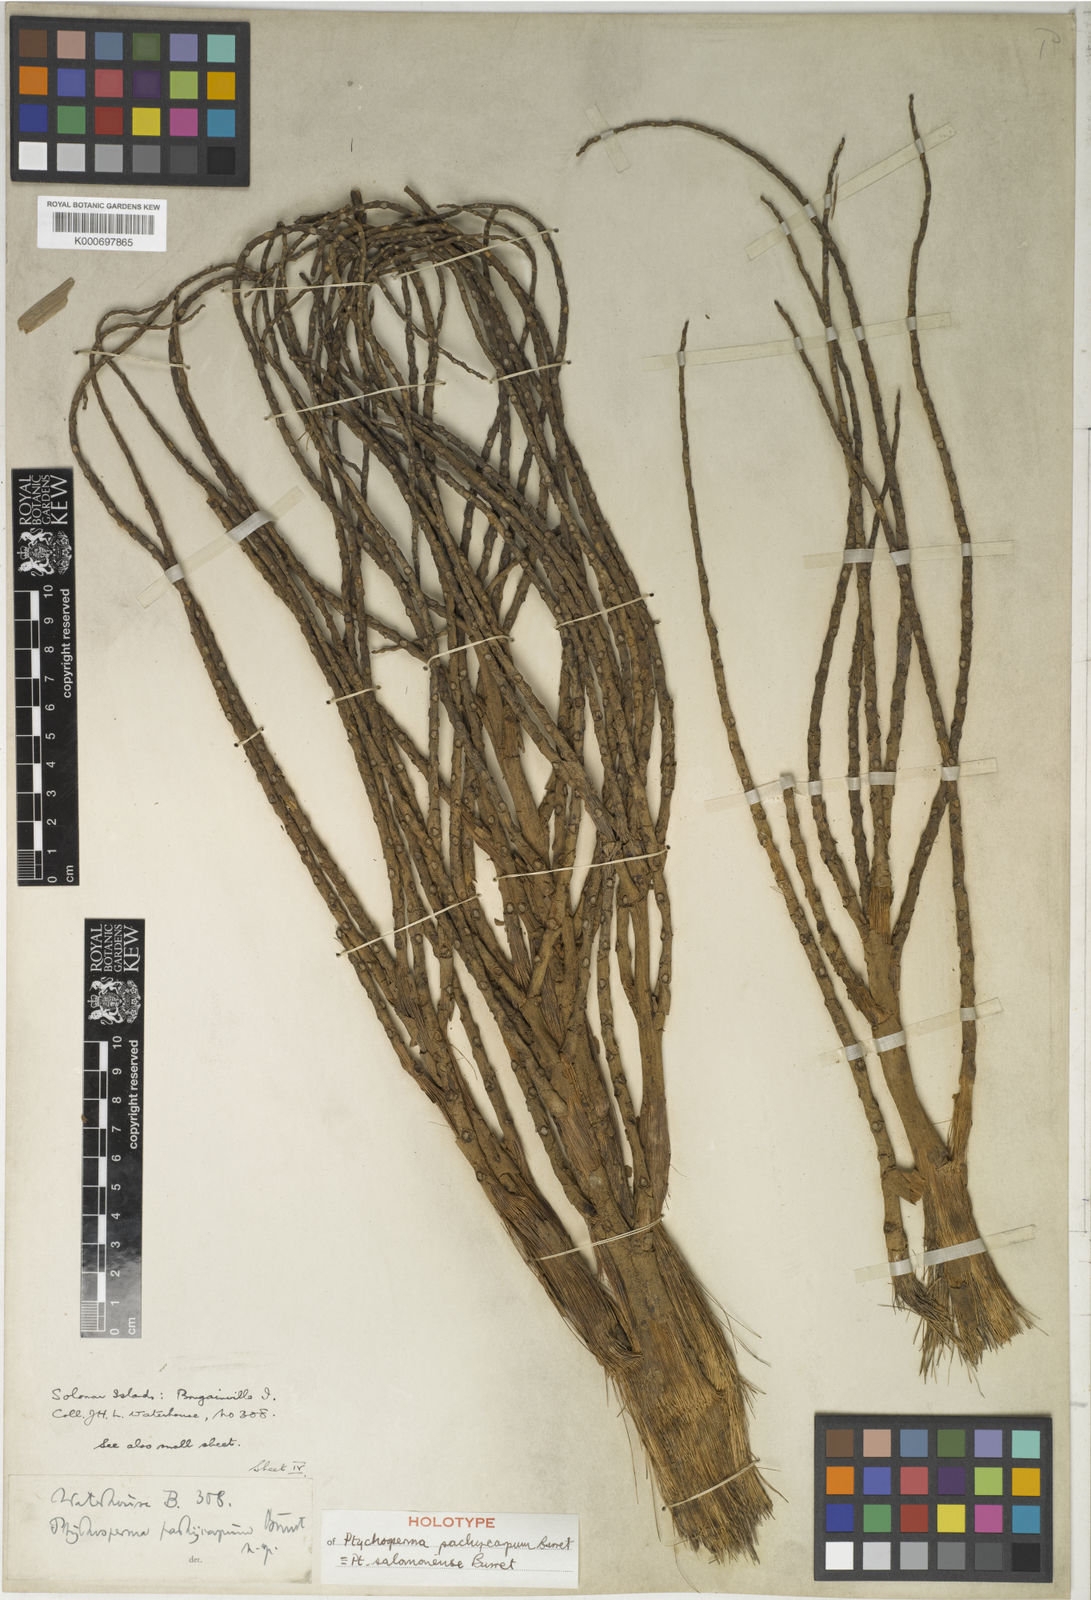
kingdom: Plantae
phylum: Tracheophyta
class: Liliopsida
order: Arecales
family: Arecaceae
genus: Ptychosperma
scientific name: Ptychosperma salomonense
